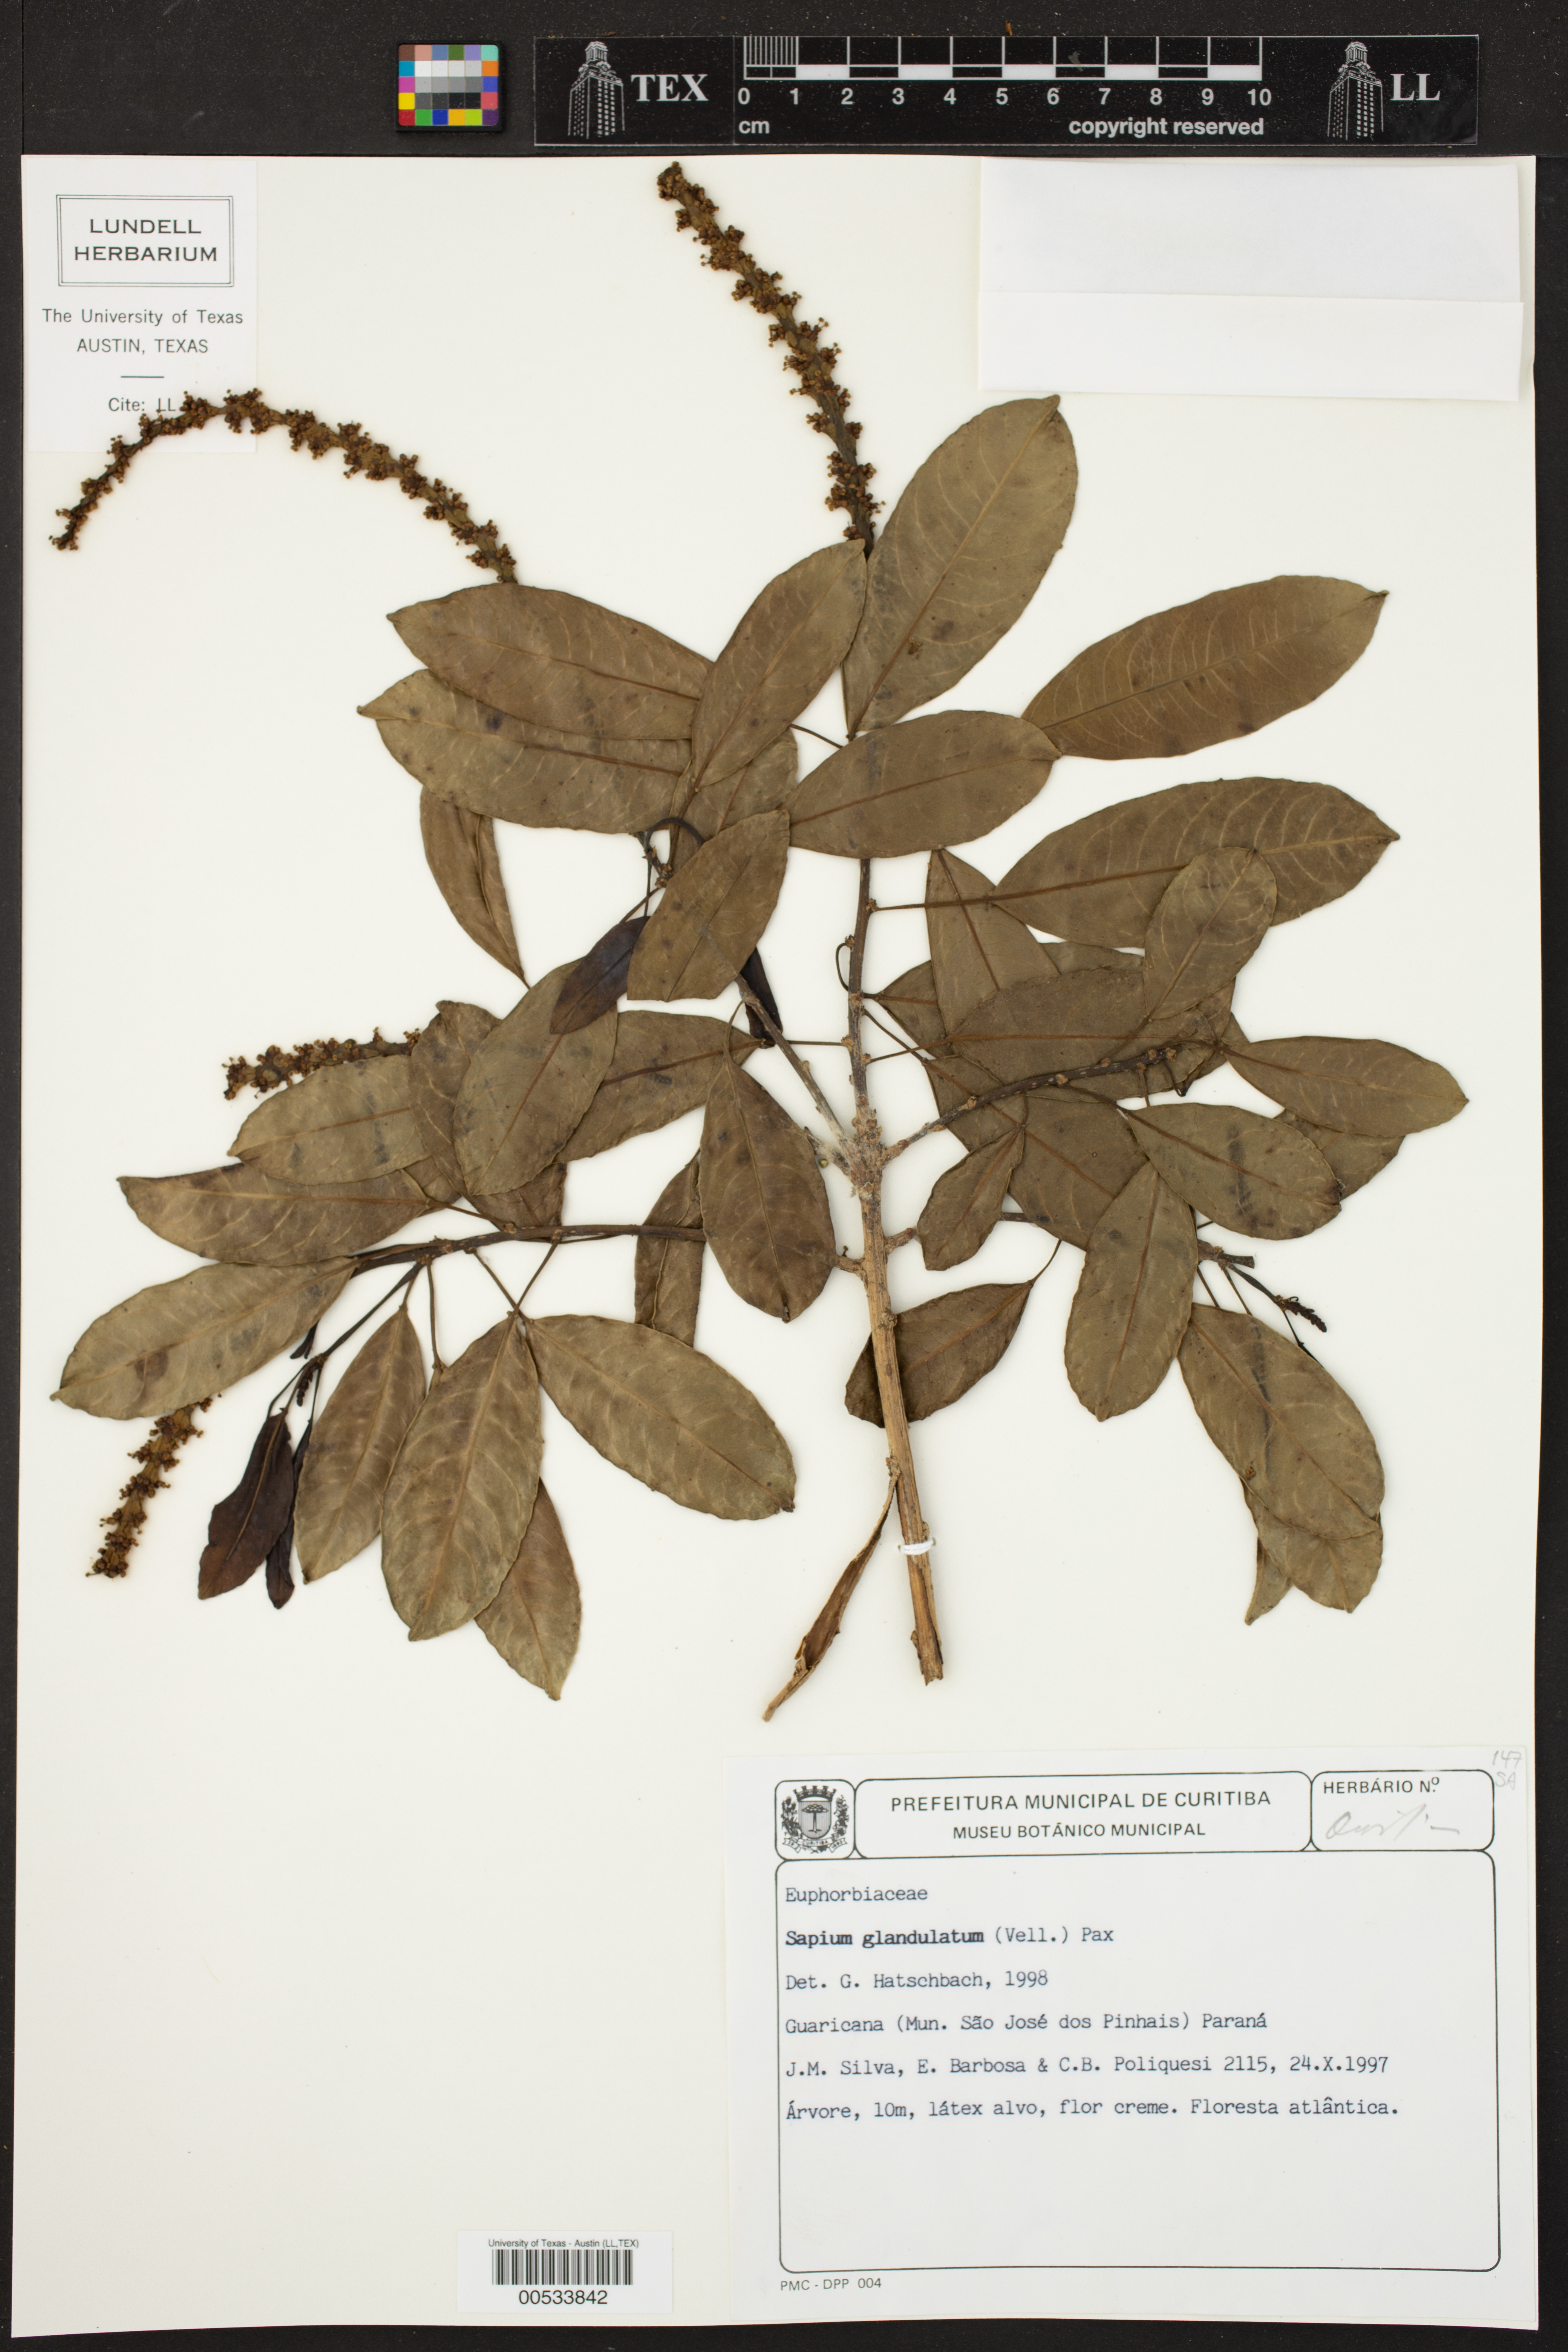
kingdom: Plantae
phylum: Tracheophyta
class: Magnoliopsida
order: Malpighiales
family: Euphorbiaceae
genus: Sapium
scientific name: Sapium glandulosum
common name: Milktree
